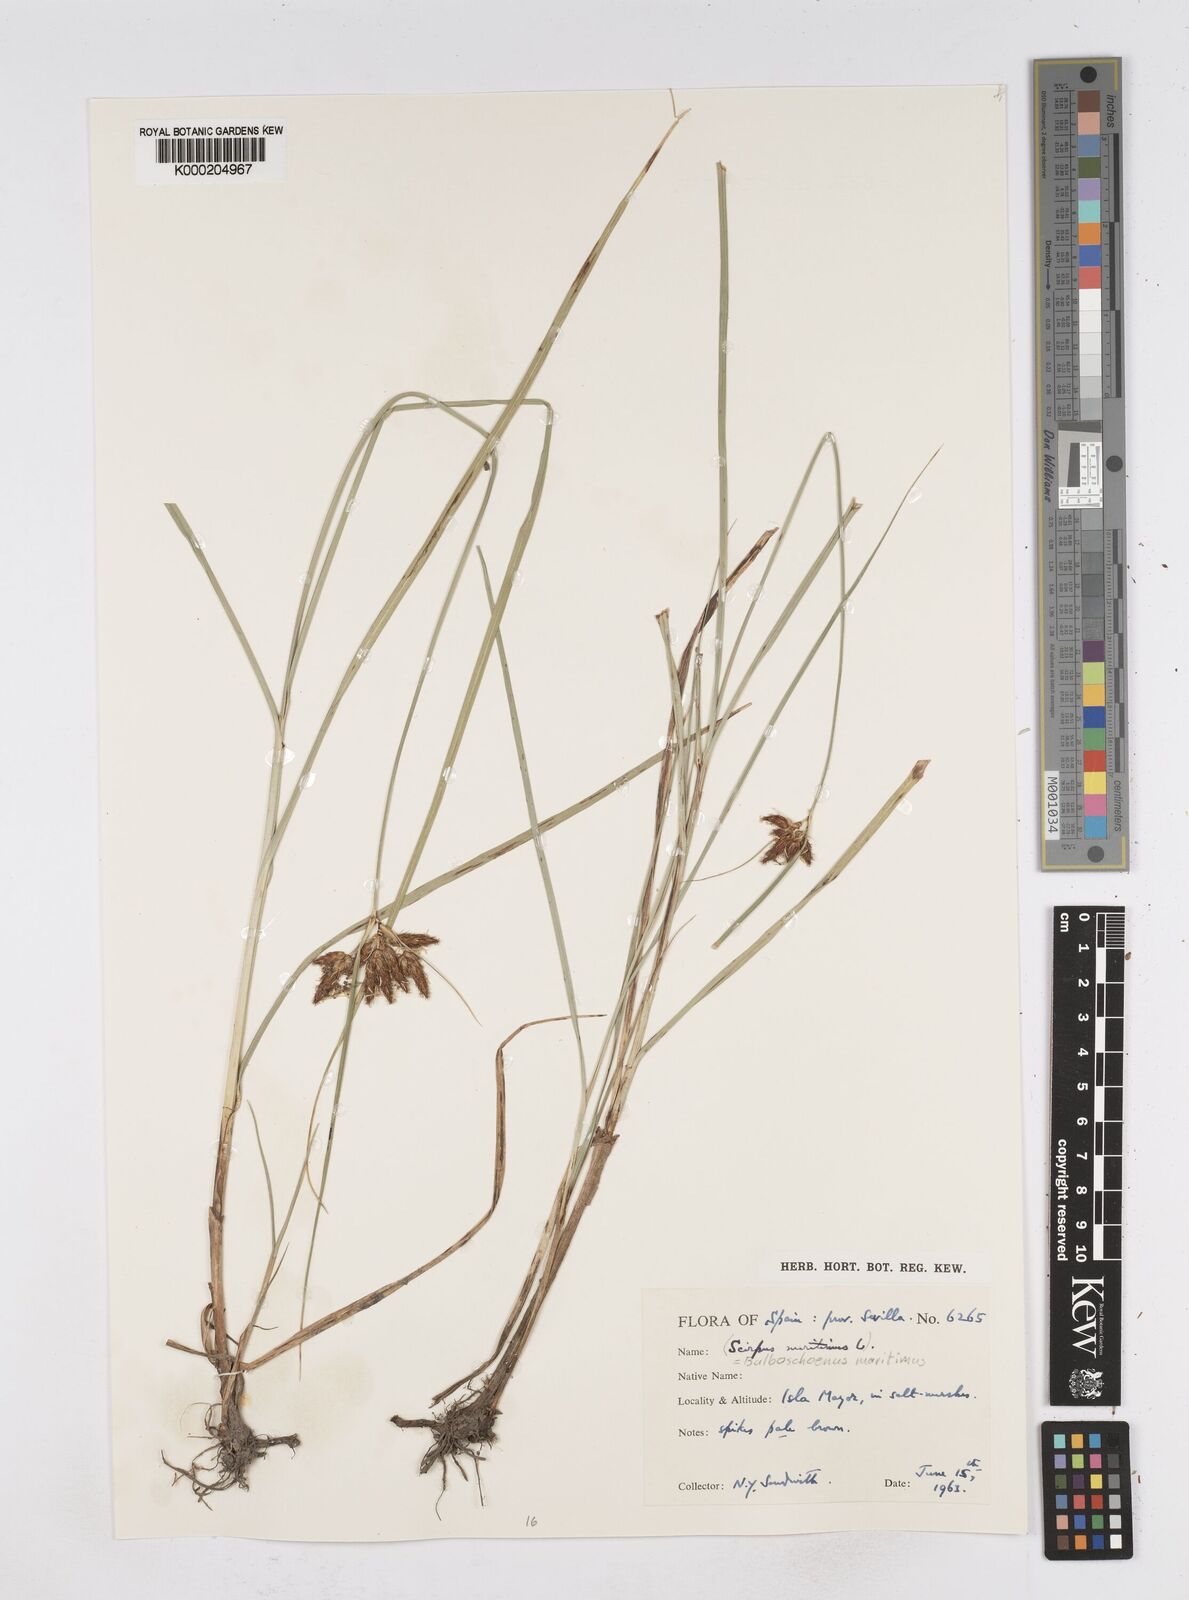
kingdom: Plantae
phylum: Tracheophyta
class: Liliopsida
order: Poales
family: Cyperaceae
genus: Bolboschoenus
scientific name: Bolboschoenus maritimus
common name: Sea club-rush
